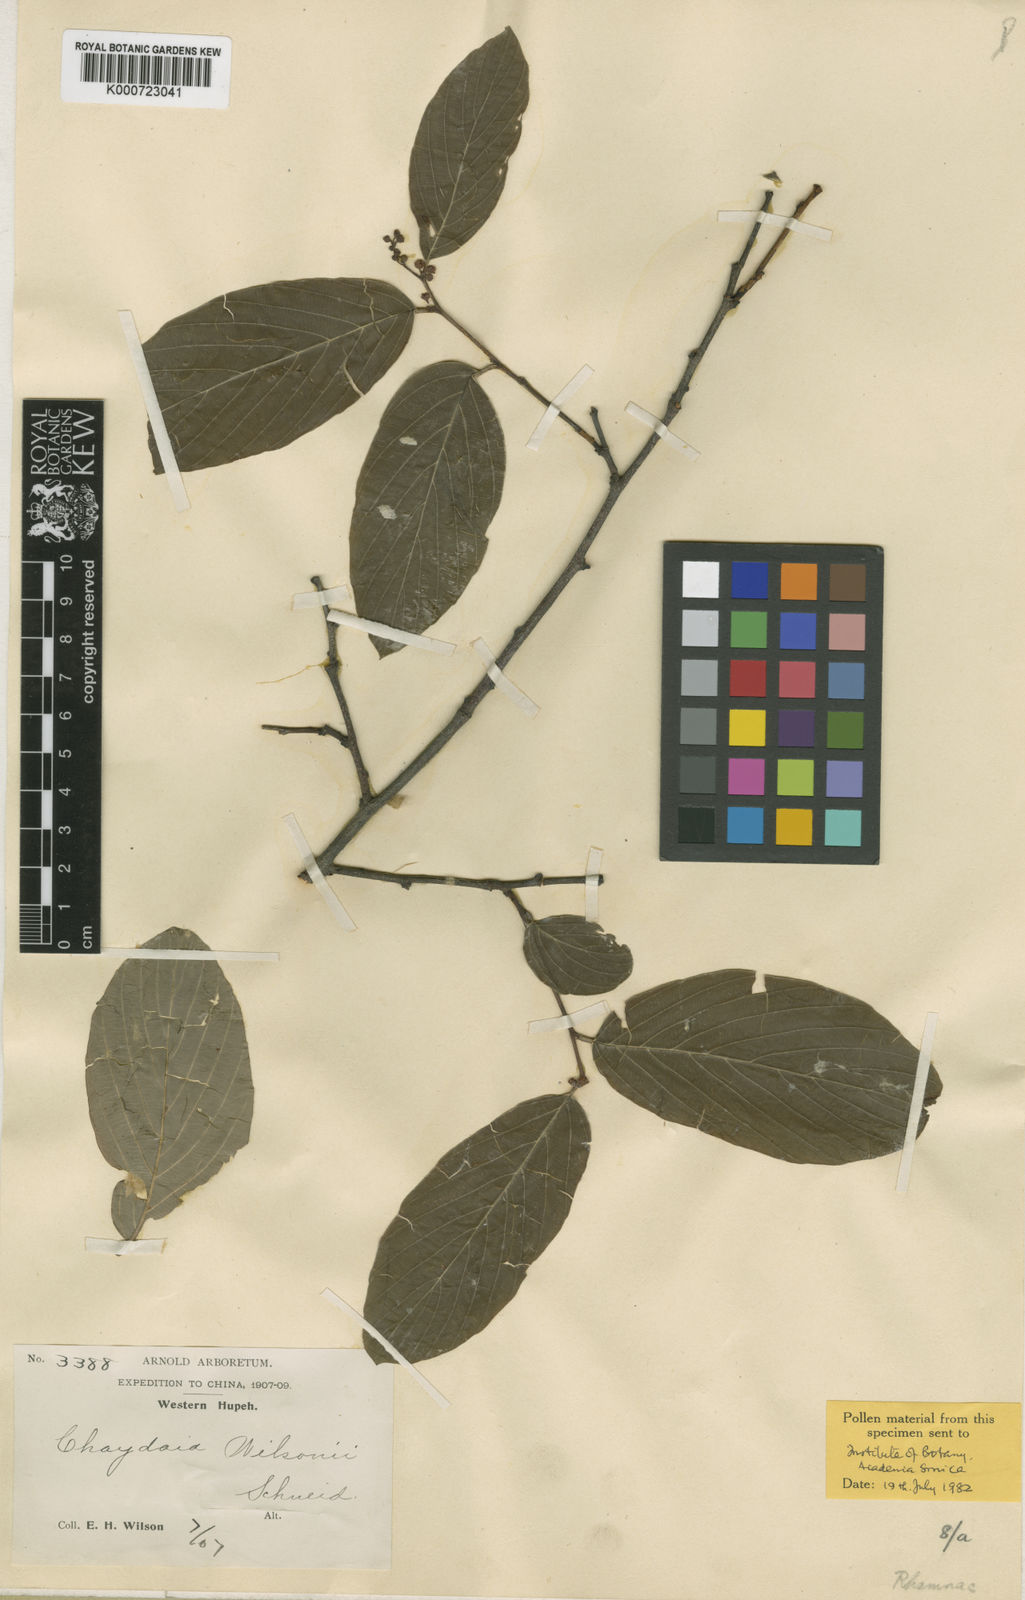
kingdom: Plantae
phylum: Tracheophyta
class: Magnoliopsida
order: Rosales
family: Rhamnaceae
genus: Berchemiella
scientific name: Berchemiella wilsonii
